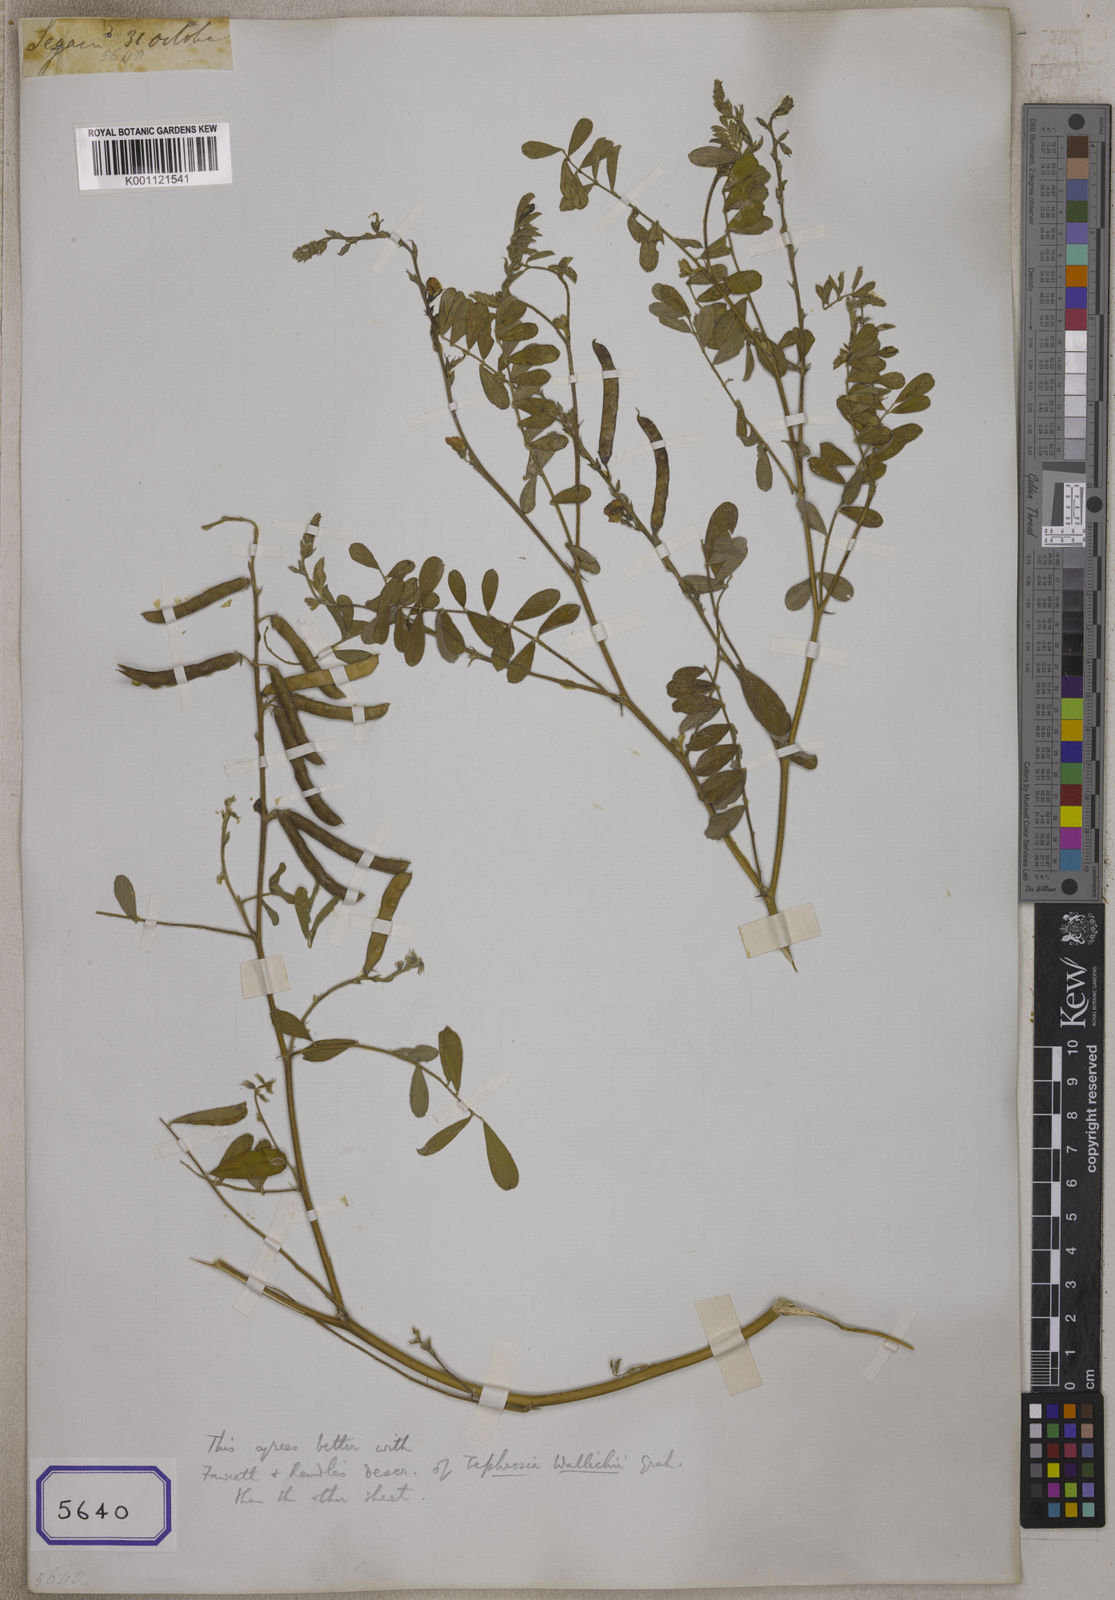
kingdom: Plantae
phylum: Tracheophyta
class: Magnoliopsida
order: Fabales
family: Fabaceae
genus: Tephrosia
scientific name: Tephrosia
